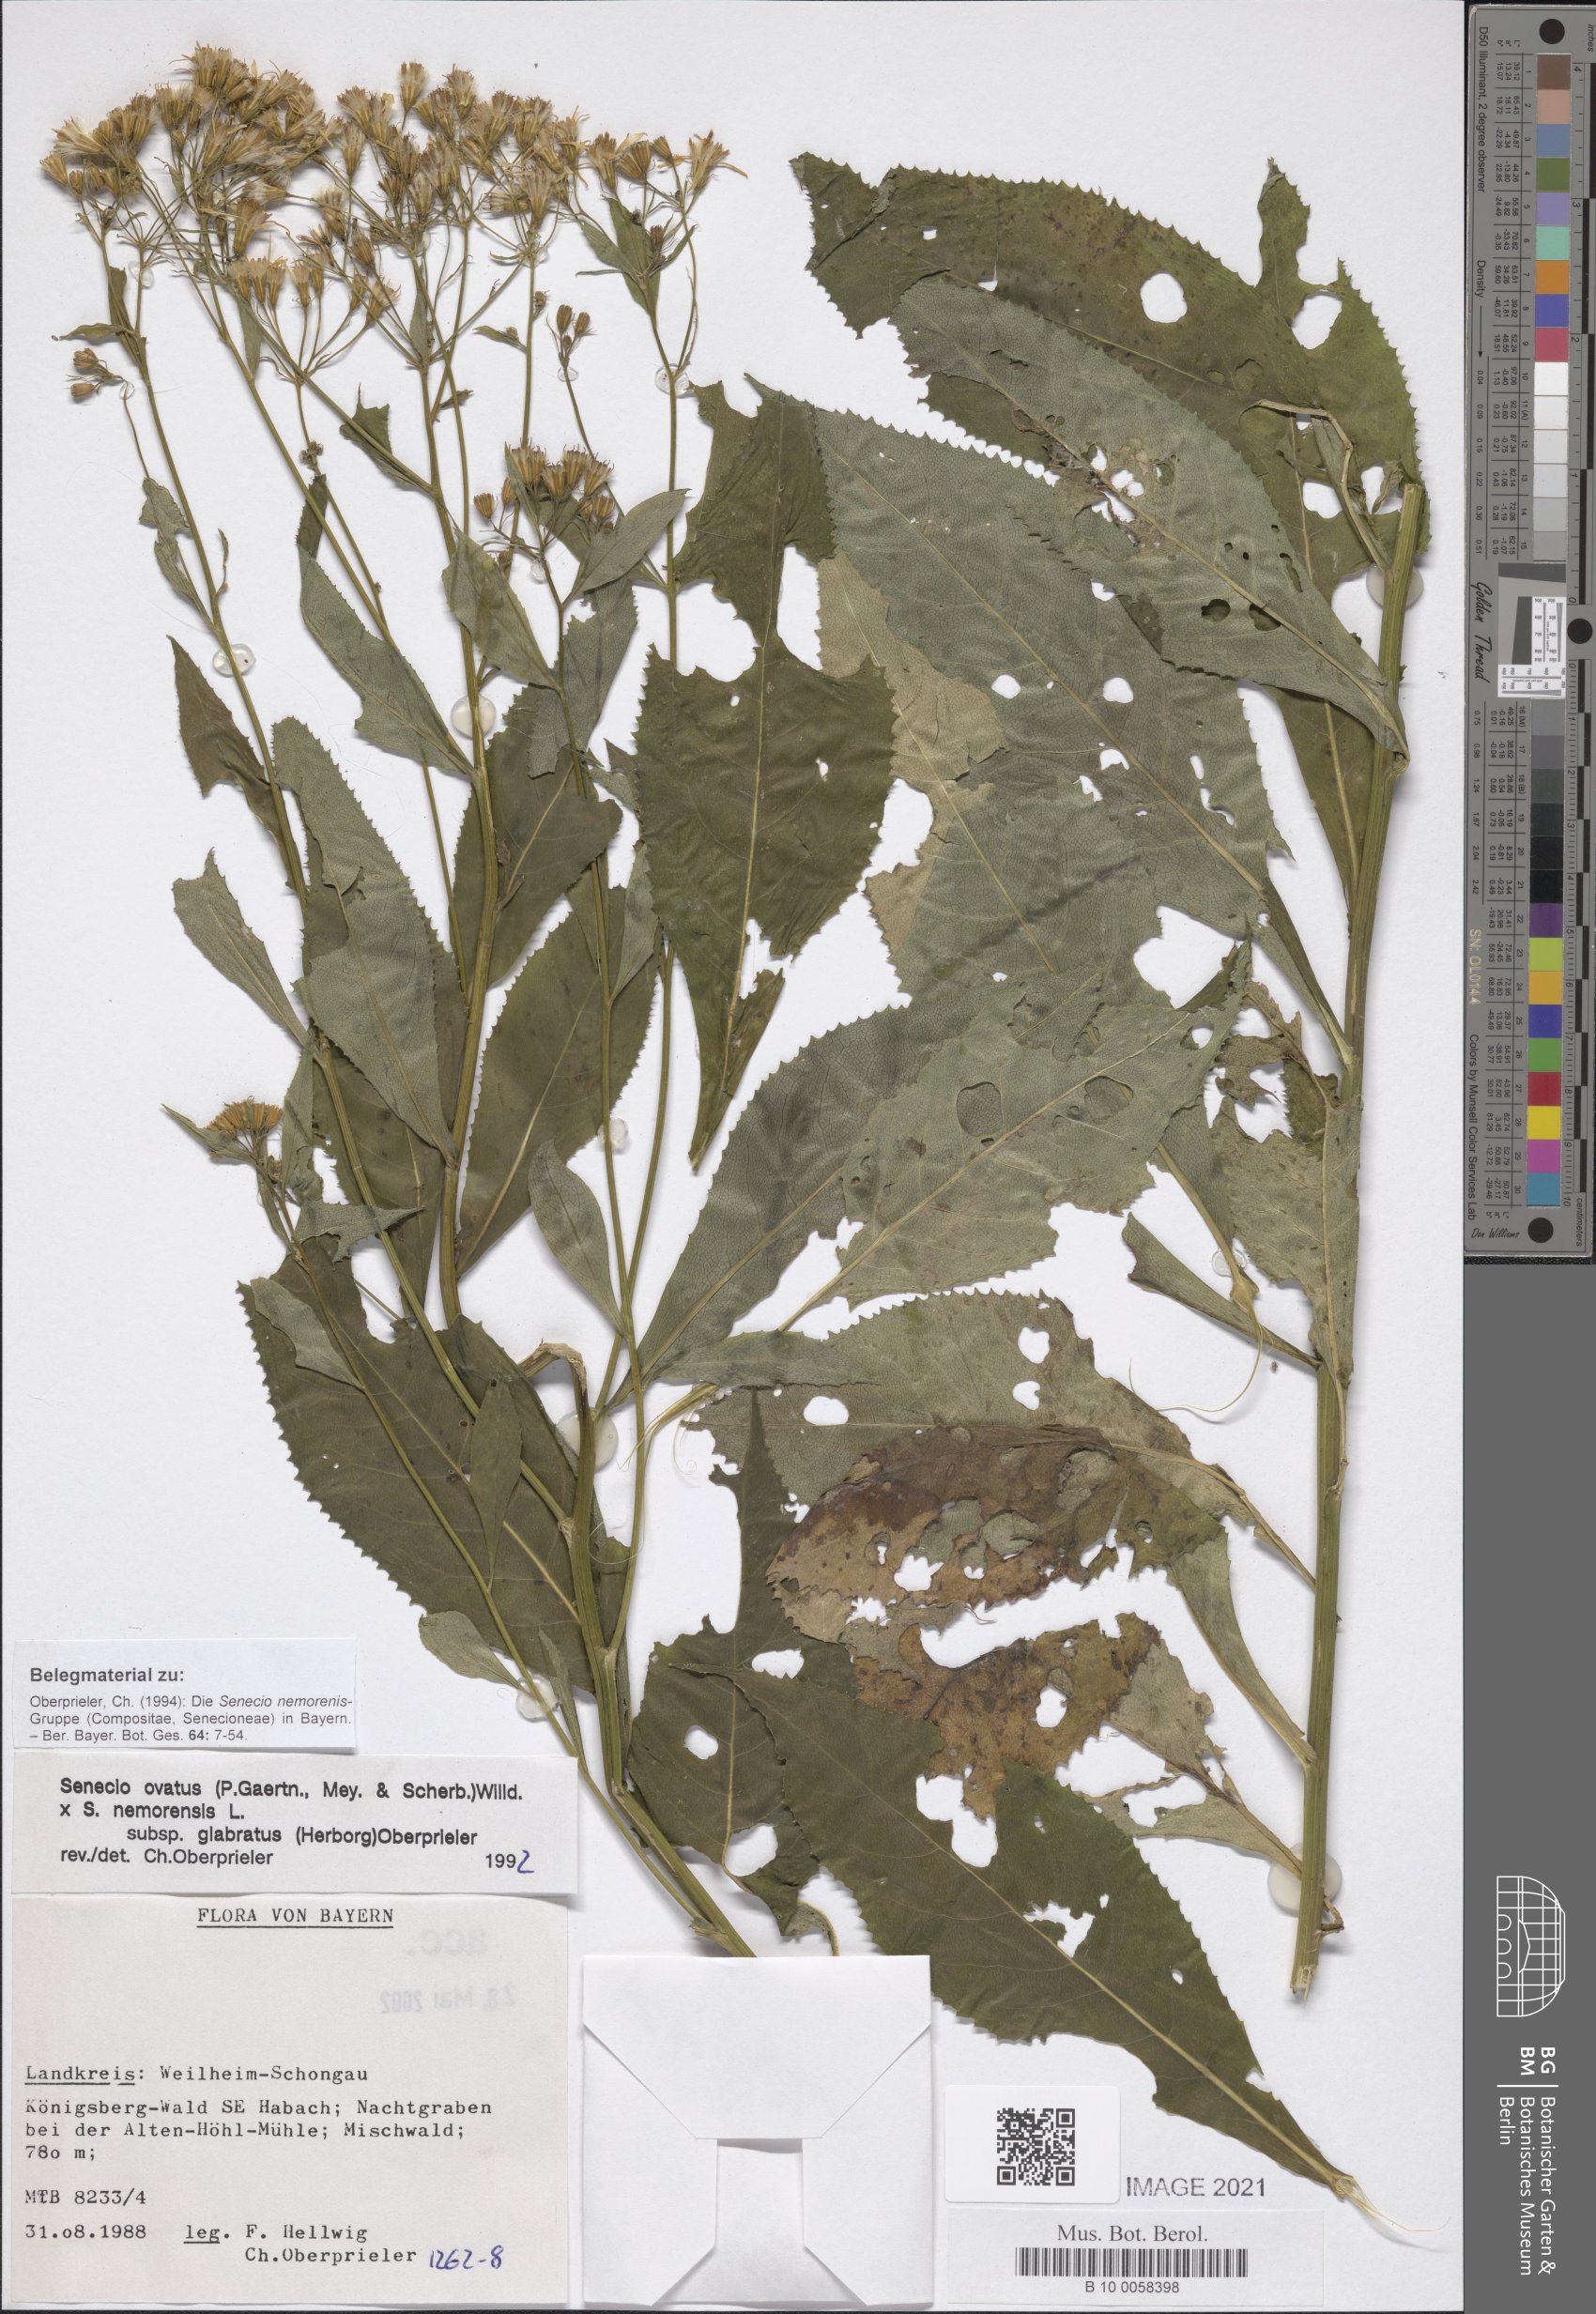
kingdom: Plantae
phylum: Tracheophyta
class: Magnoliopsida
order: Asterales
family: Asteraceae
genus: Senecio
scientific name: Senecio ovatus
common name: Wood ragwort
